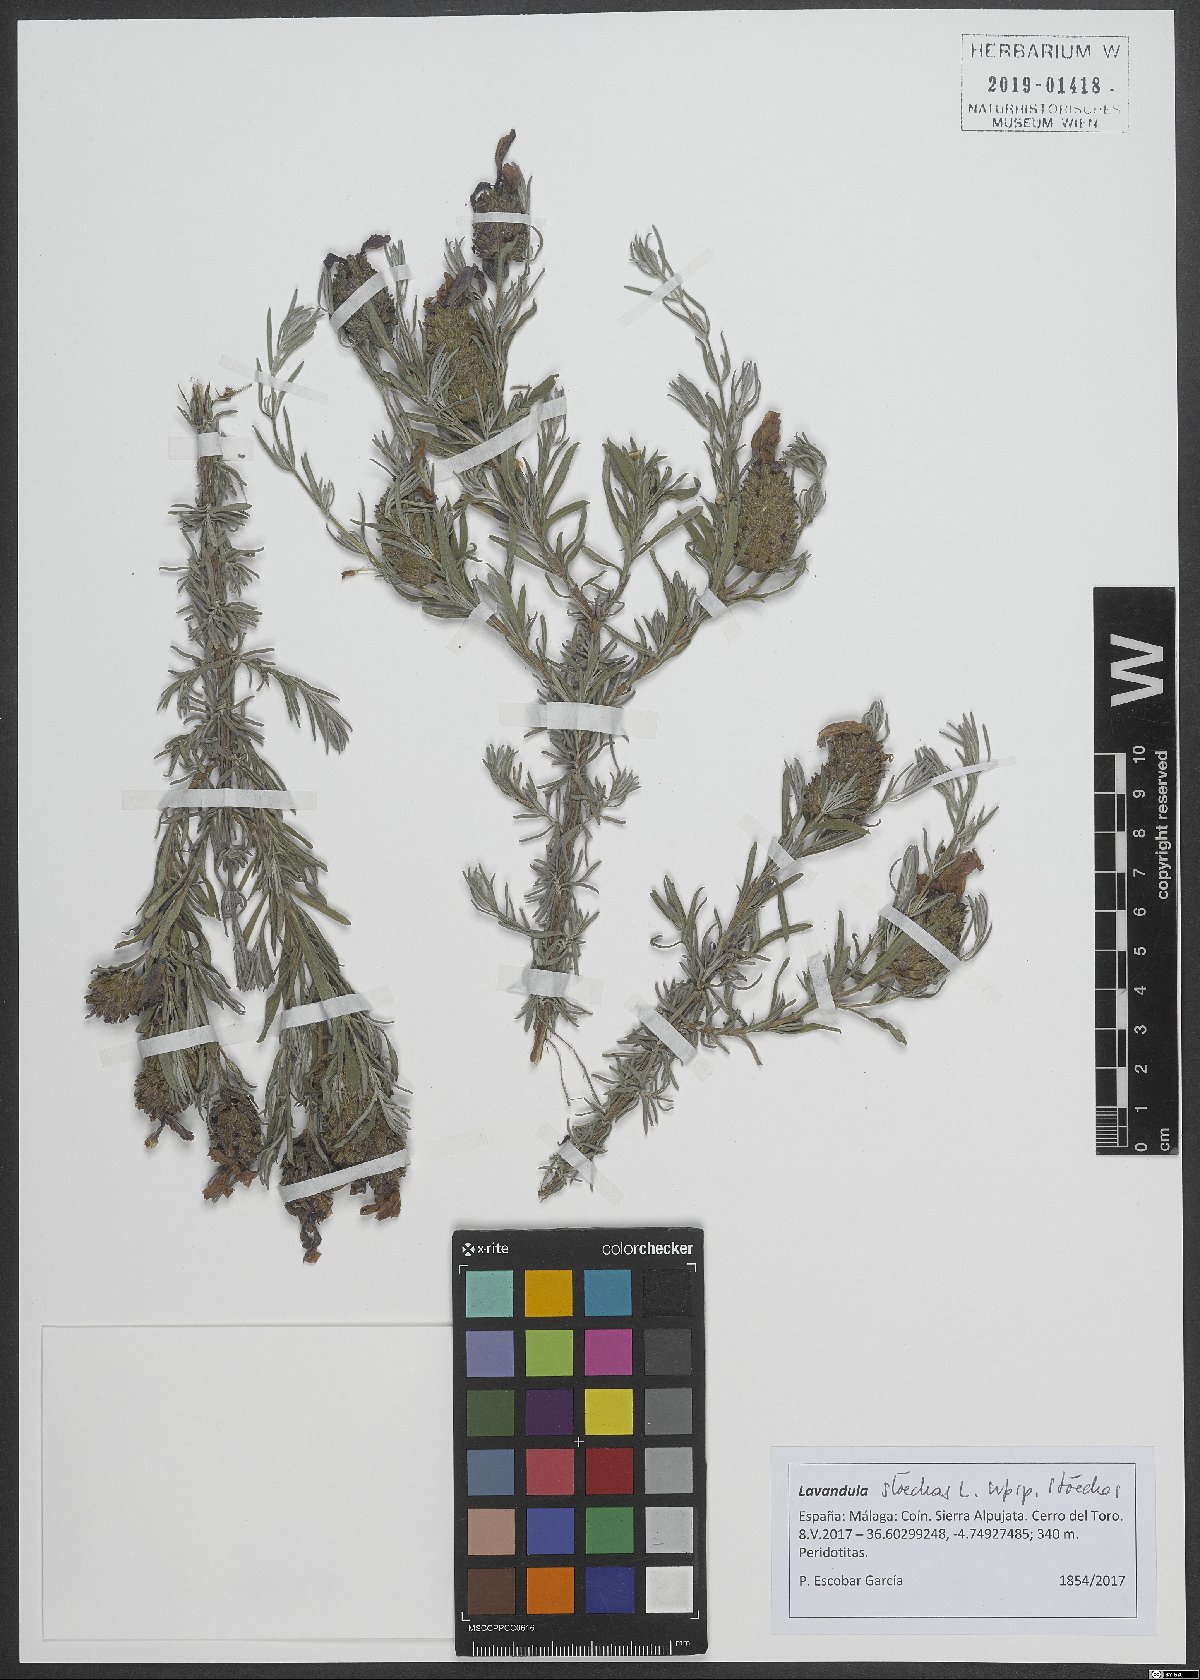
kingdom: Plantae
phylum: Tracheophyta
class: Magnoliopsida
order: Lamiales
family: Lamiaceae
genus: Lavandula
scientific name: Lavandula stoechas
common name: French lavender
